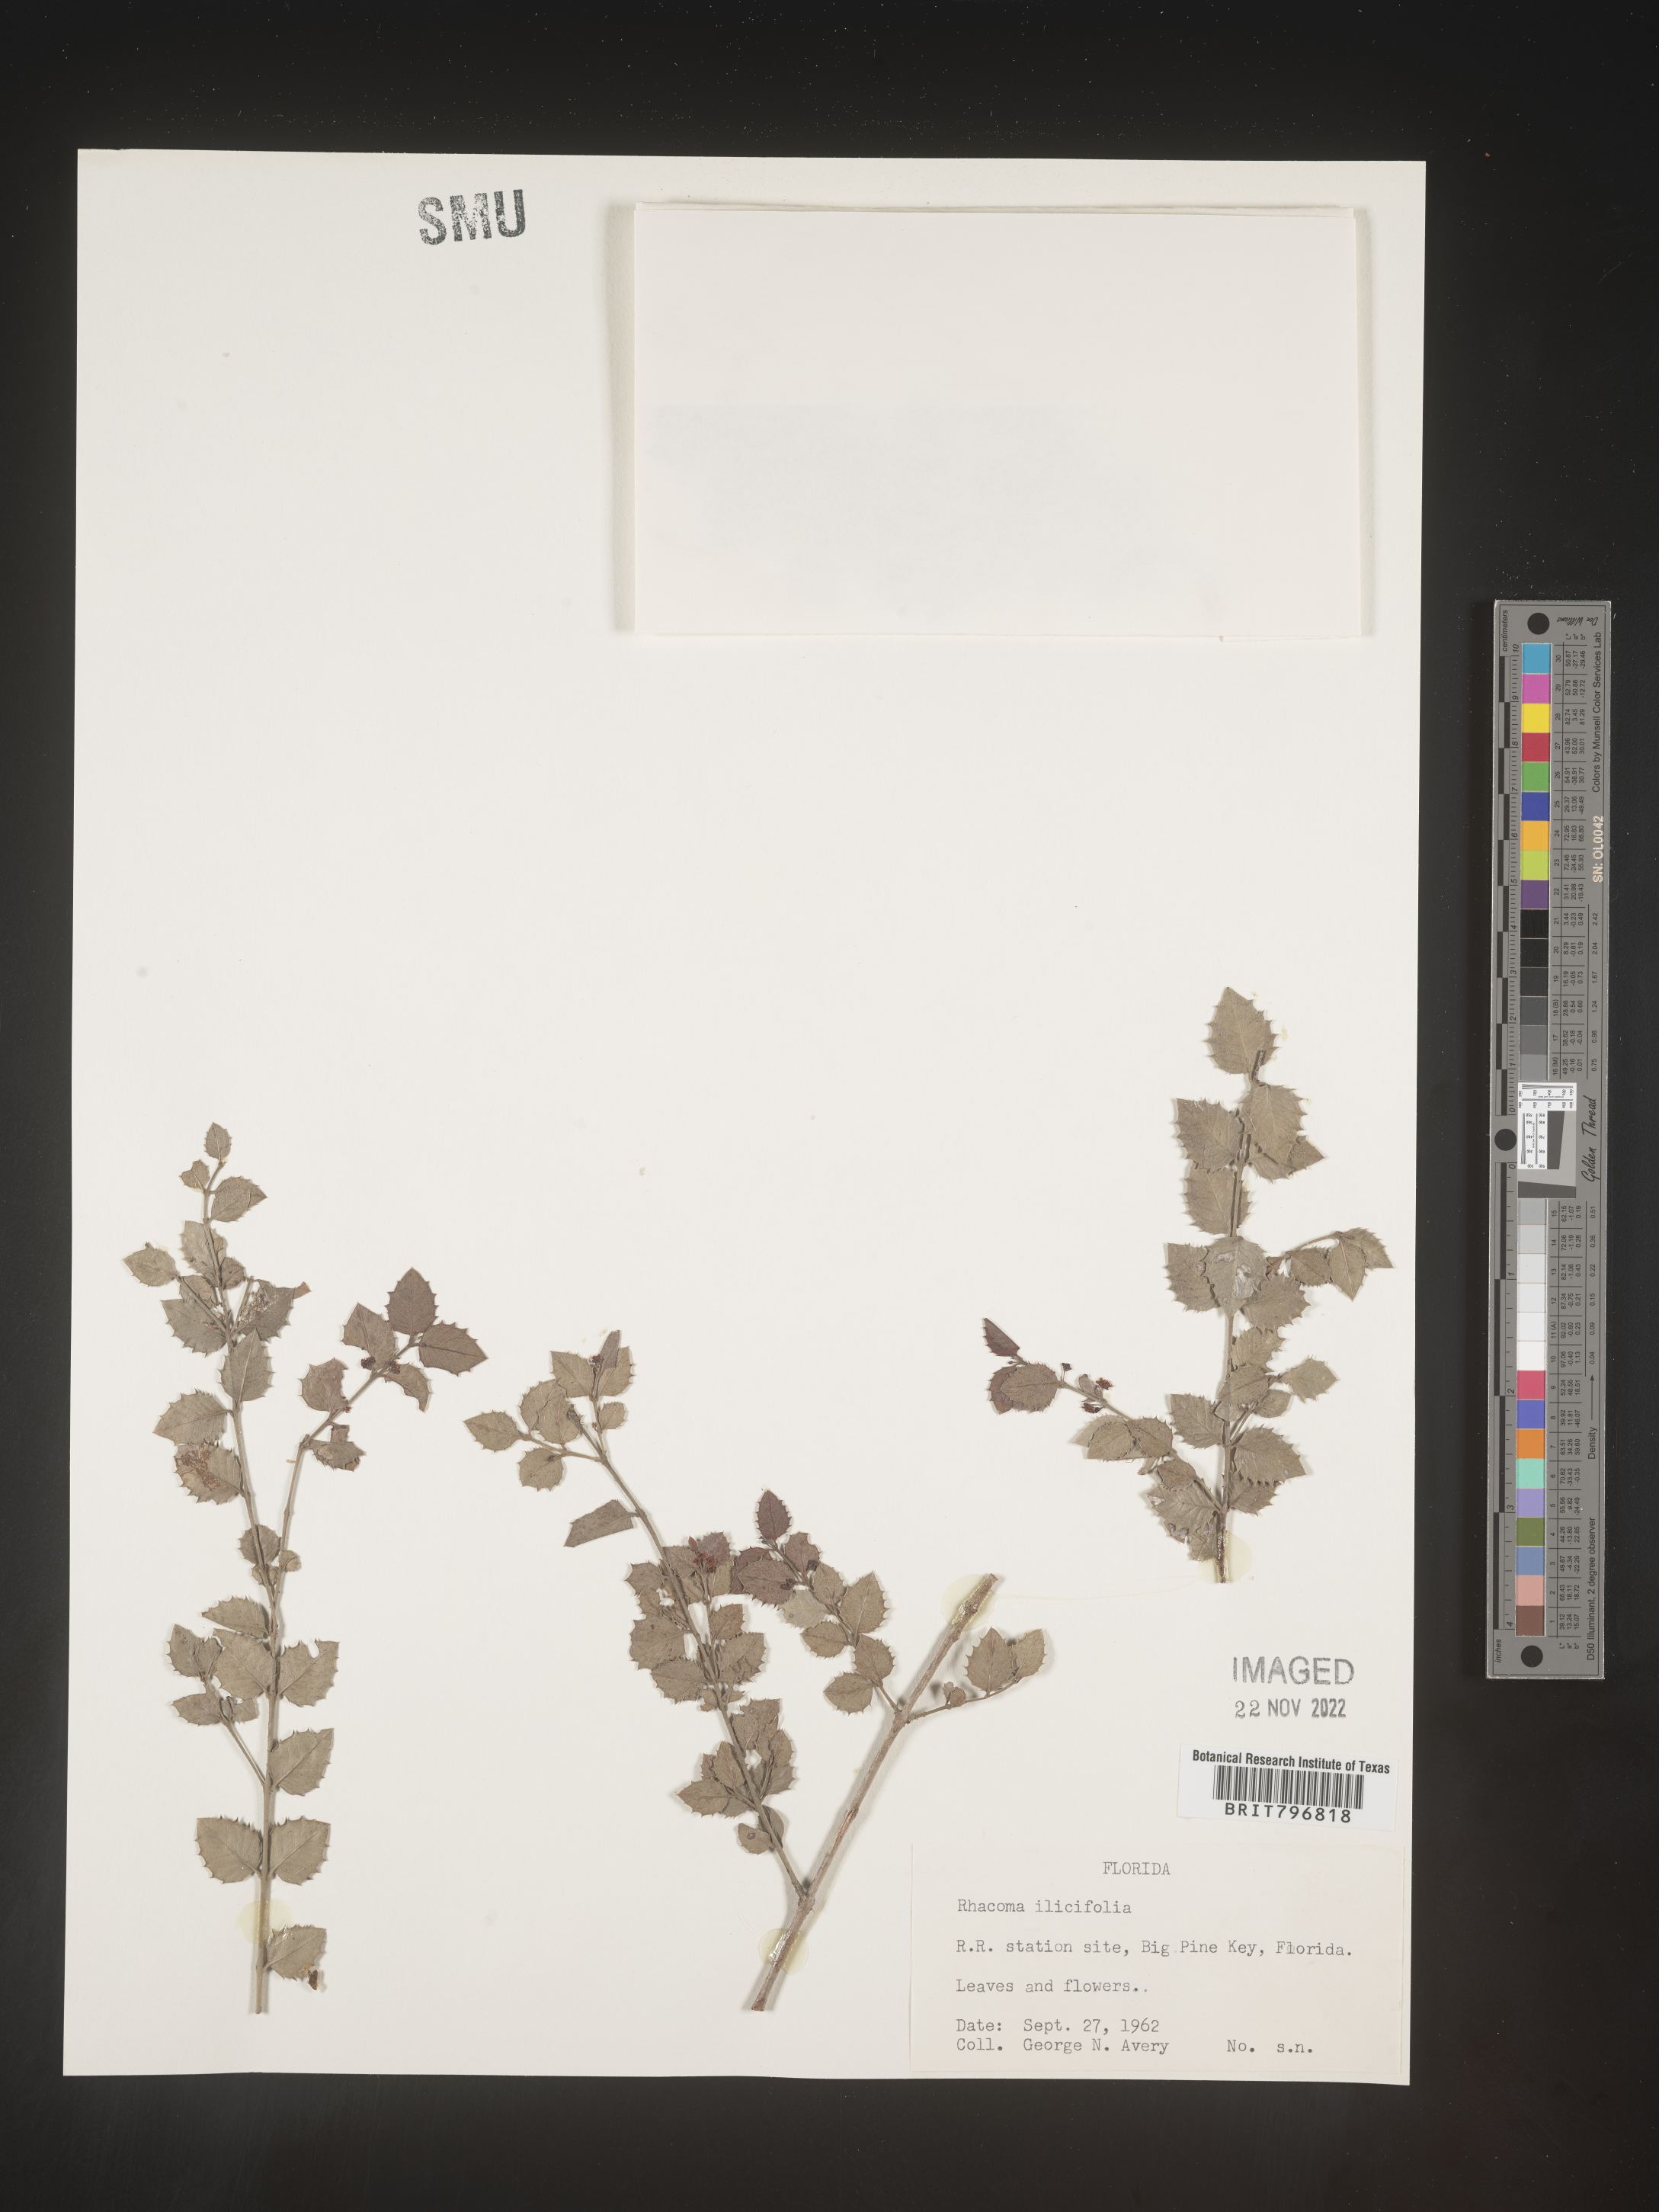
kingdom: Plantae
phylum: Tracheophyta
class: Magnoliopsida
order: Celastrales
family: Celastraceae
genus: Crossopetalum
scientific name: Crossopetalum
